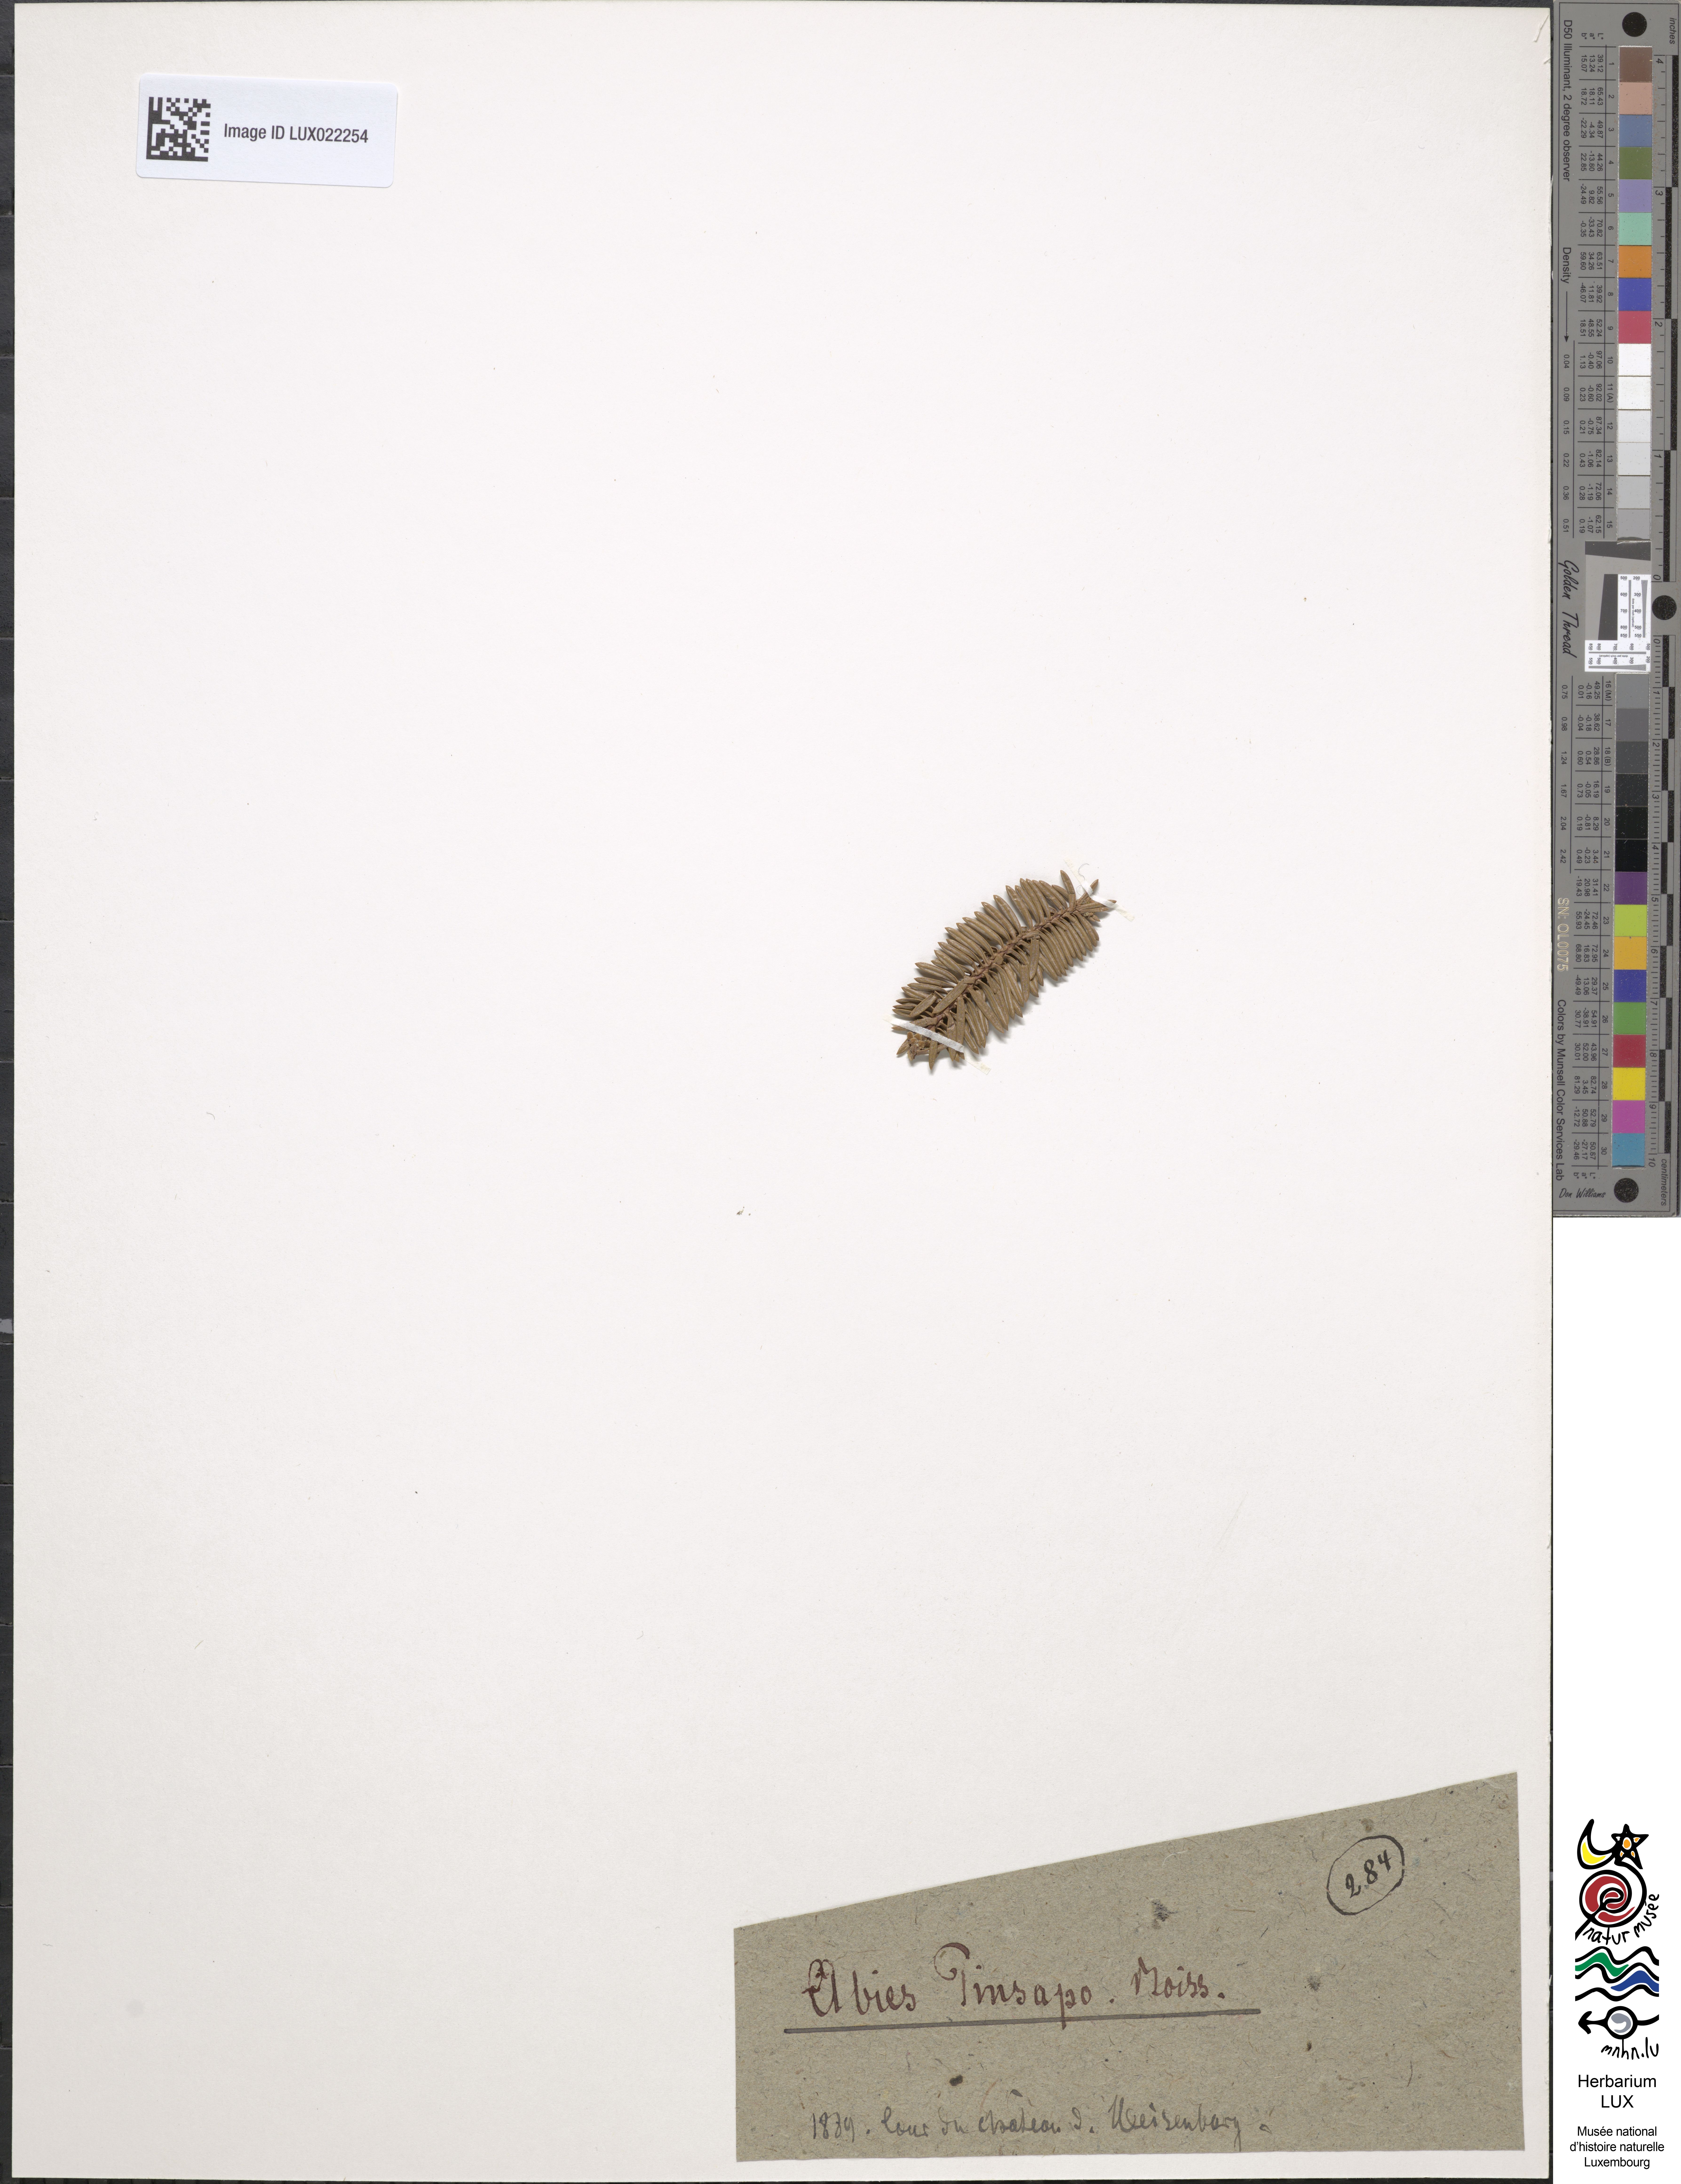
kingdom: Plantae
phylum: Tracheophyta
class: Pinopsida
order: Pinales
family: Pinaceae
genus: Abies
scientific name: Abies pinsapo
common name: Spanish fir
